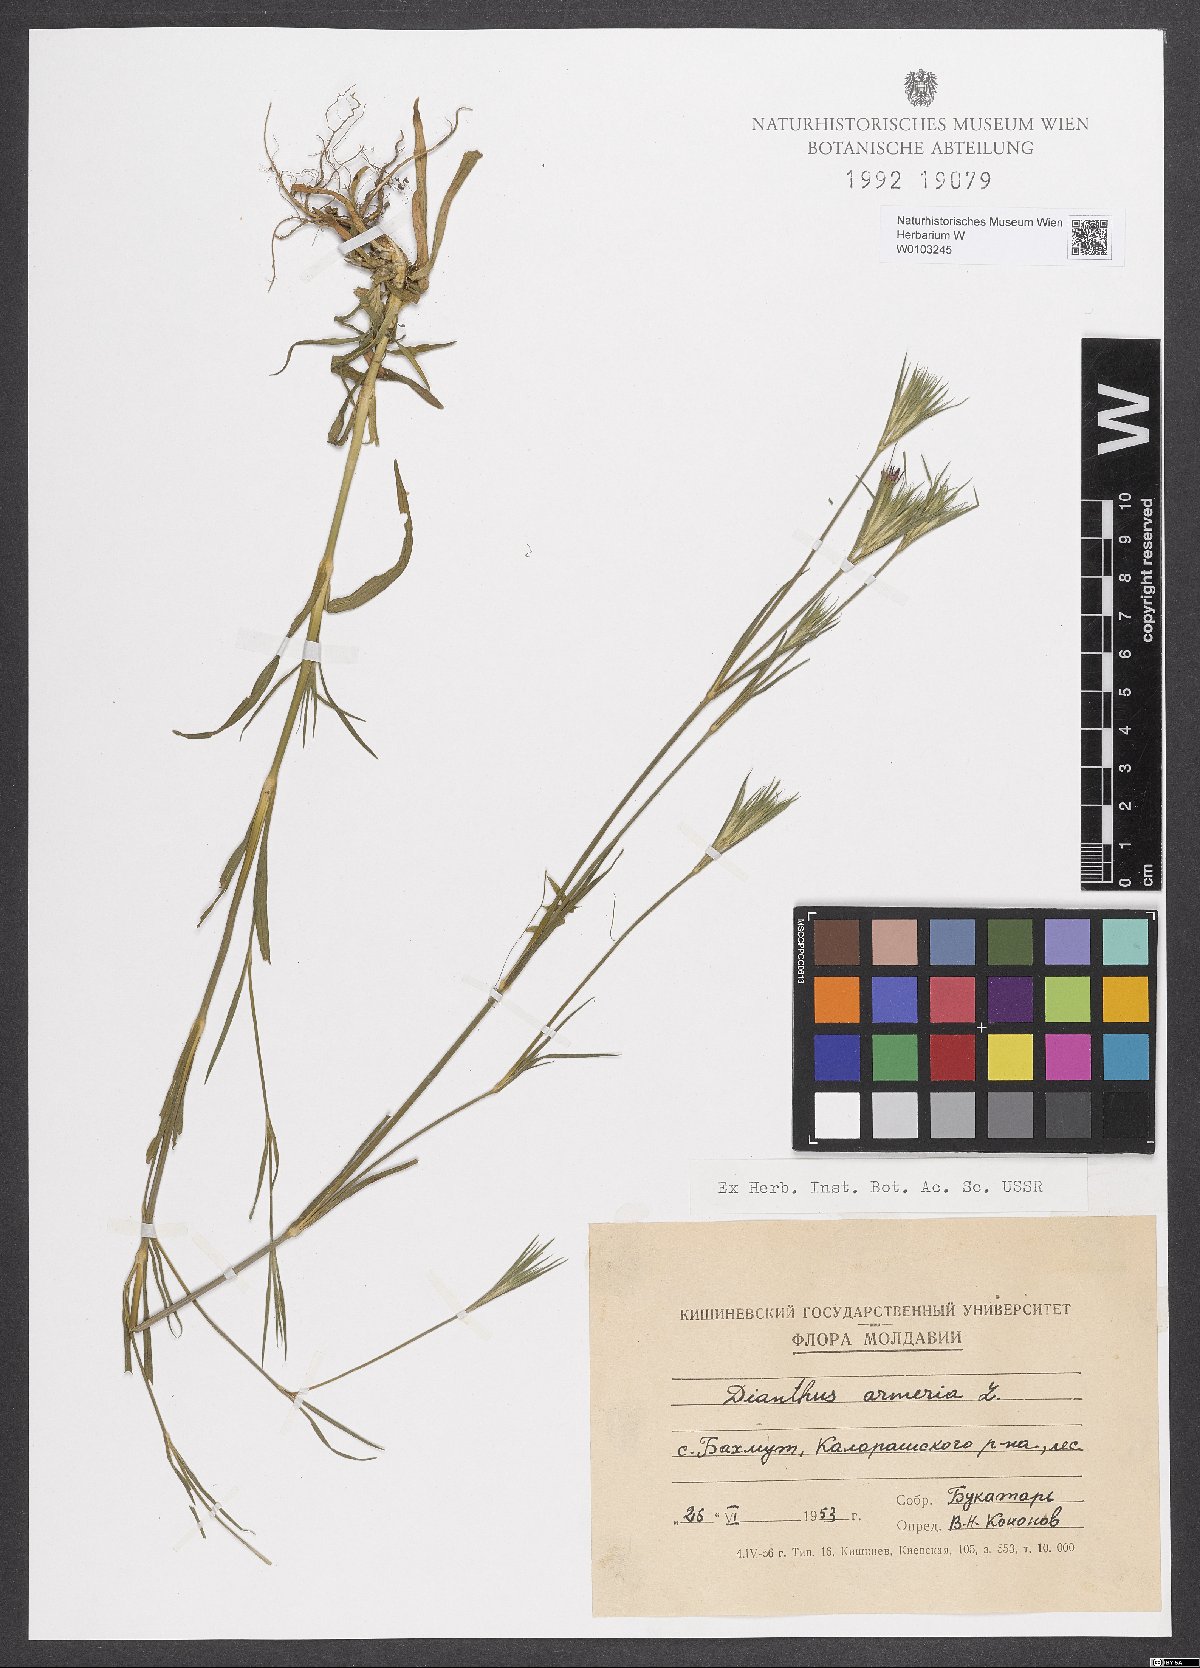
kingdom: Plantae
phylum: Tracheophyta
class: Magnoliopsida
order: Caryophyllales
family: Caryophyllaceae
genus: Dianthus
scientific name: Dianthus armeria
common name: Deptford pink
